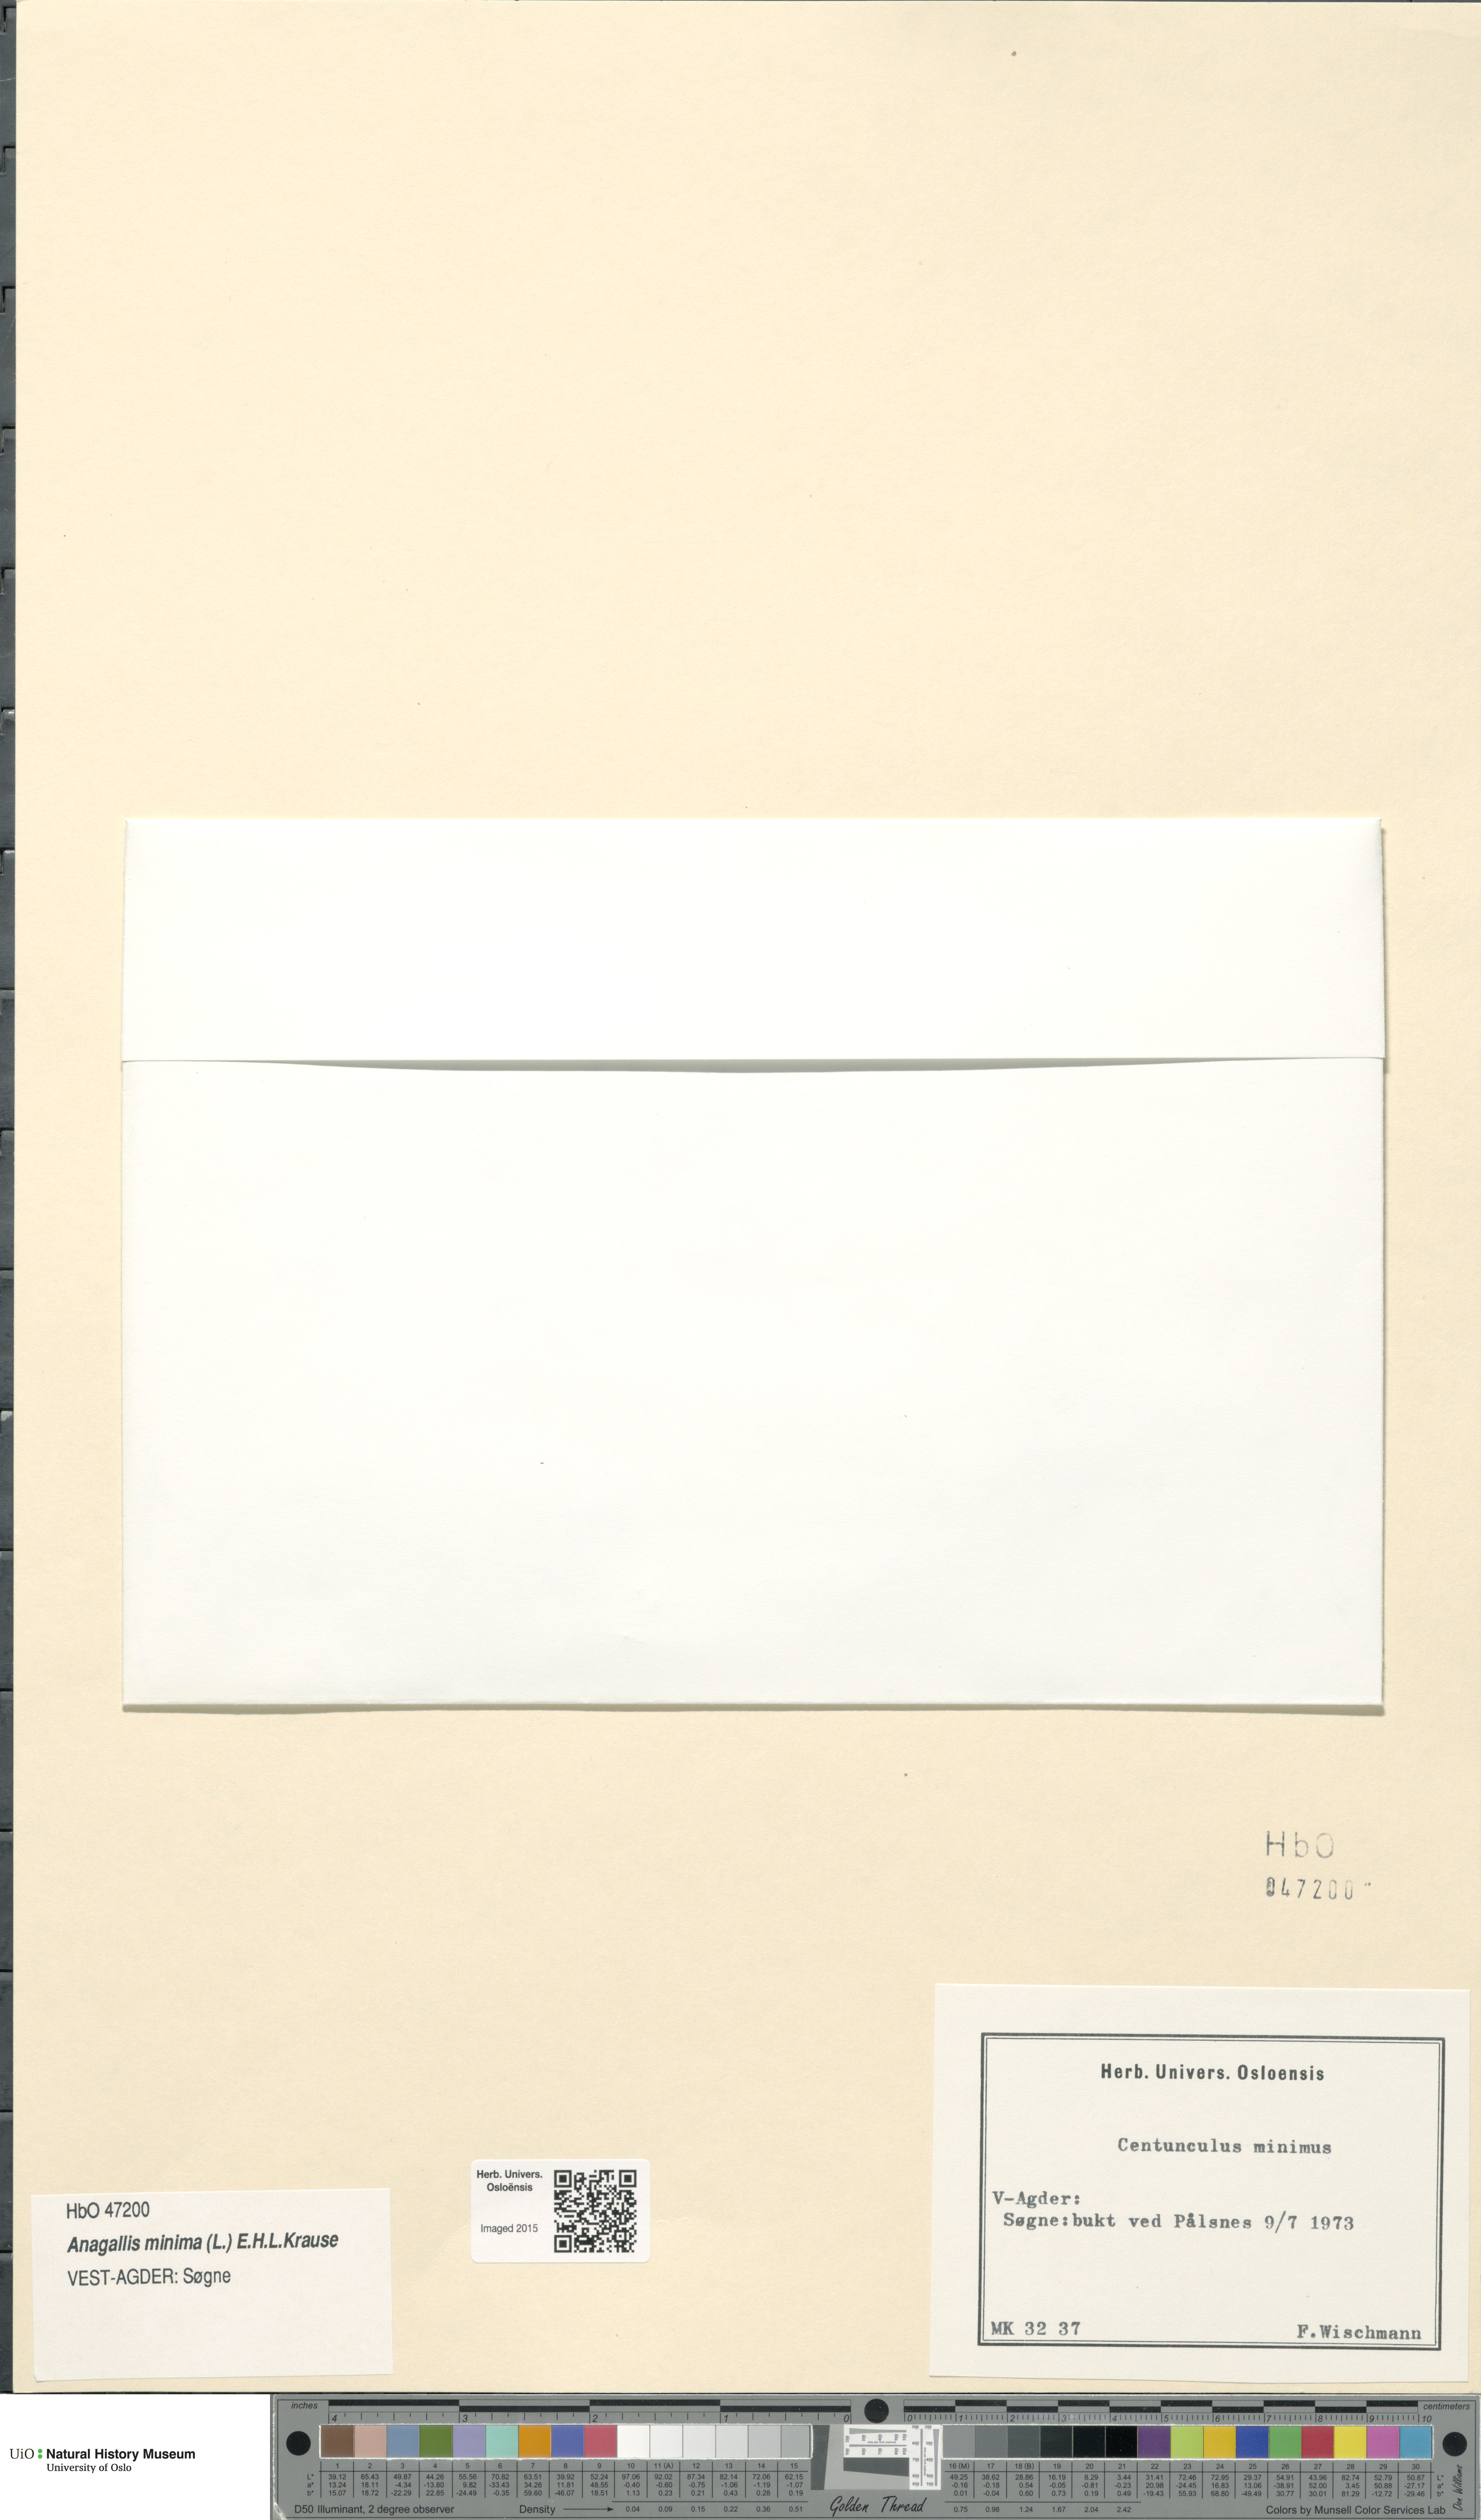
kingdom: Plantae
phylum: Tracheophyta
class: Magnoliopsida
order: Ericales
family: Primulaceae
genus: Lysimachia
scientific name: Lysimachia minima
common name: Chaffweed
